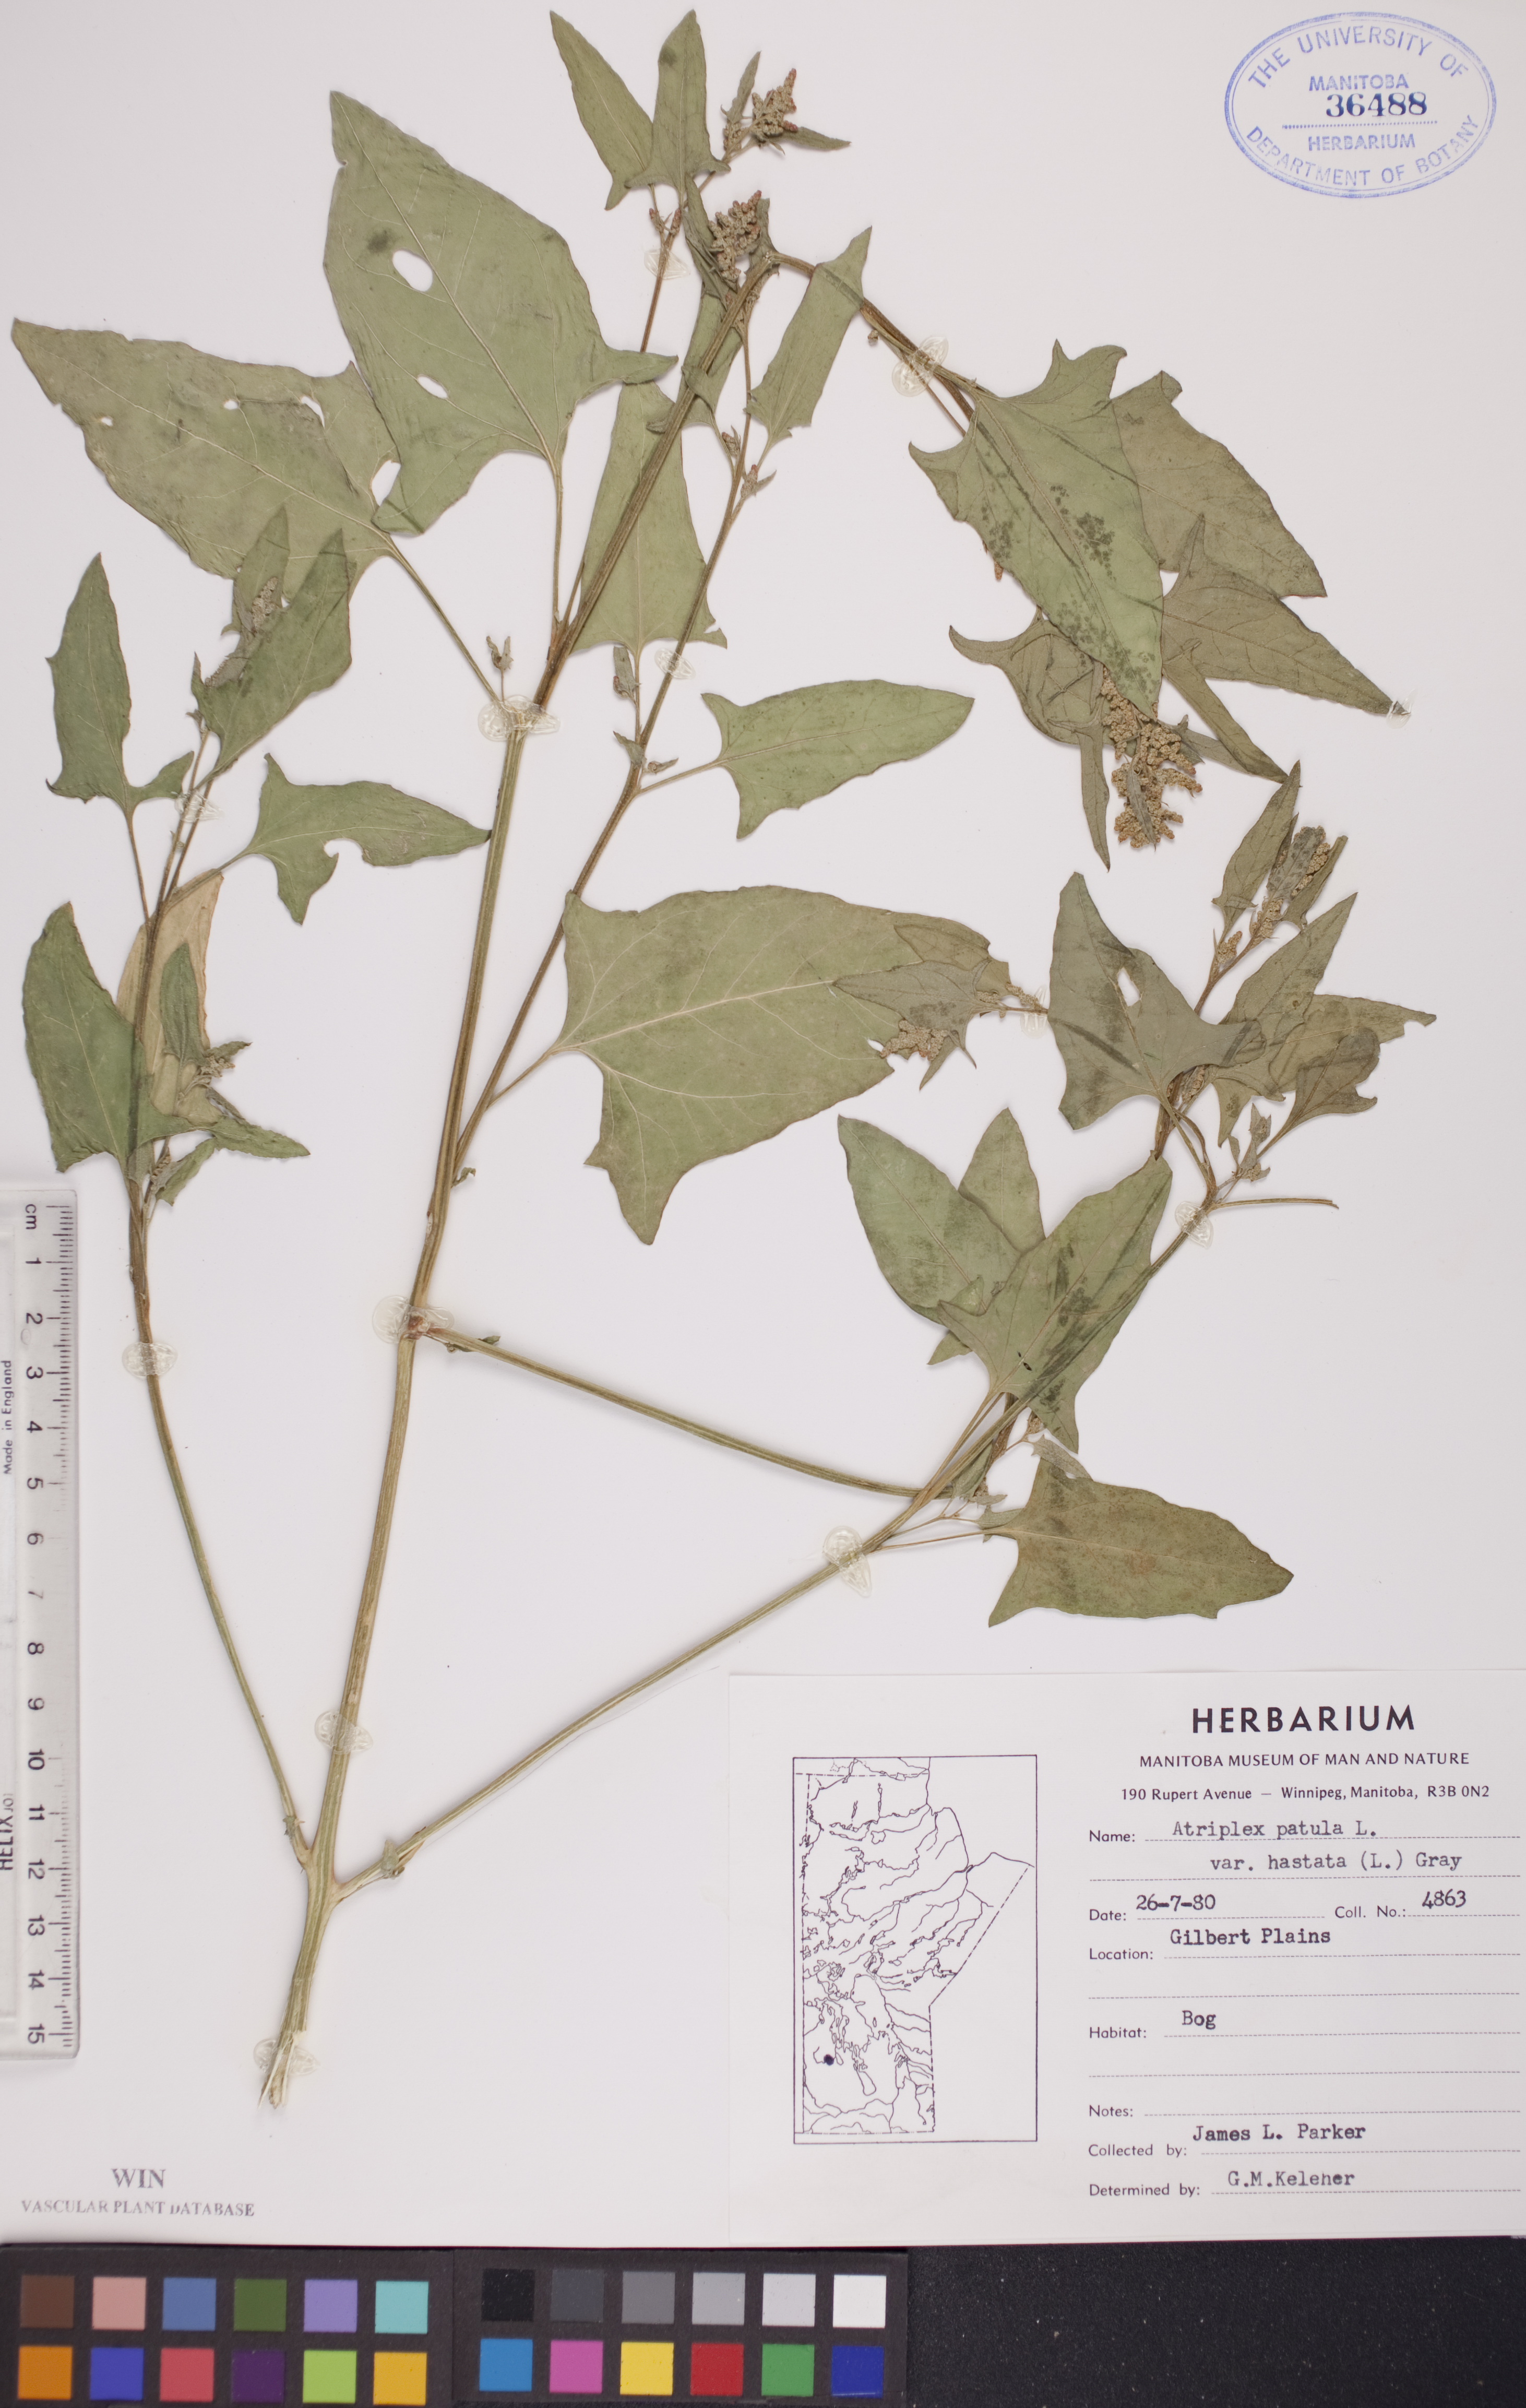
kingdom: Plantae
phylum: Tracheophyta
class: Magnoliopsida
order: Caryophyllales
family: Amaranthaceae
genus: Atriplex
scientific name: Atriplex
